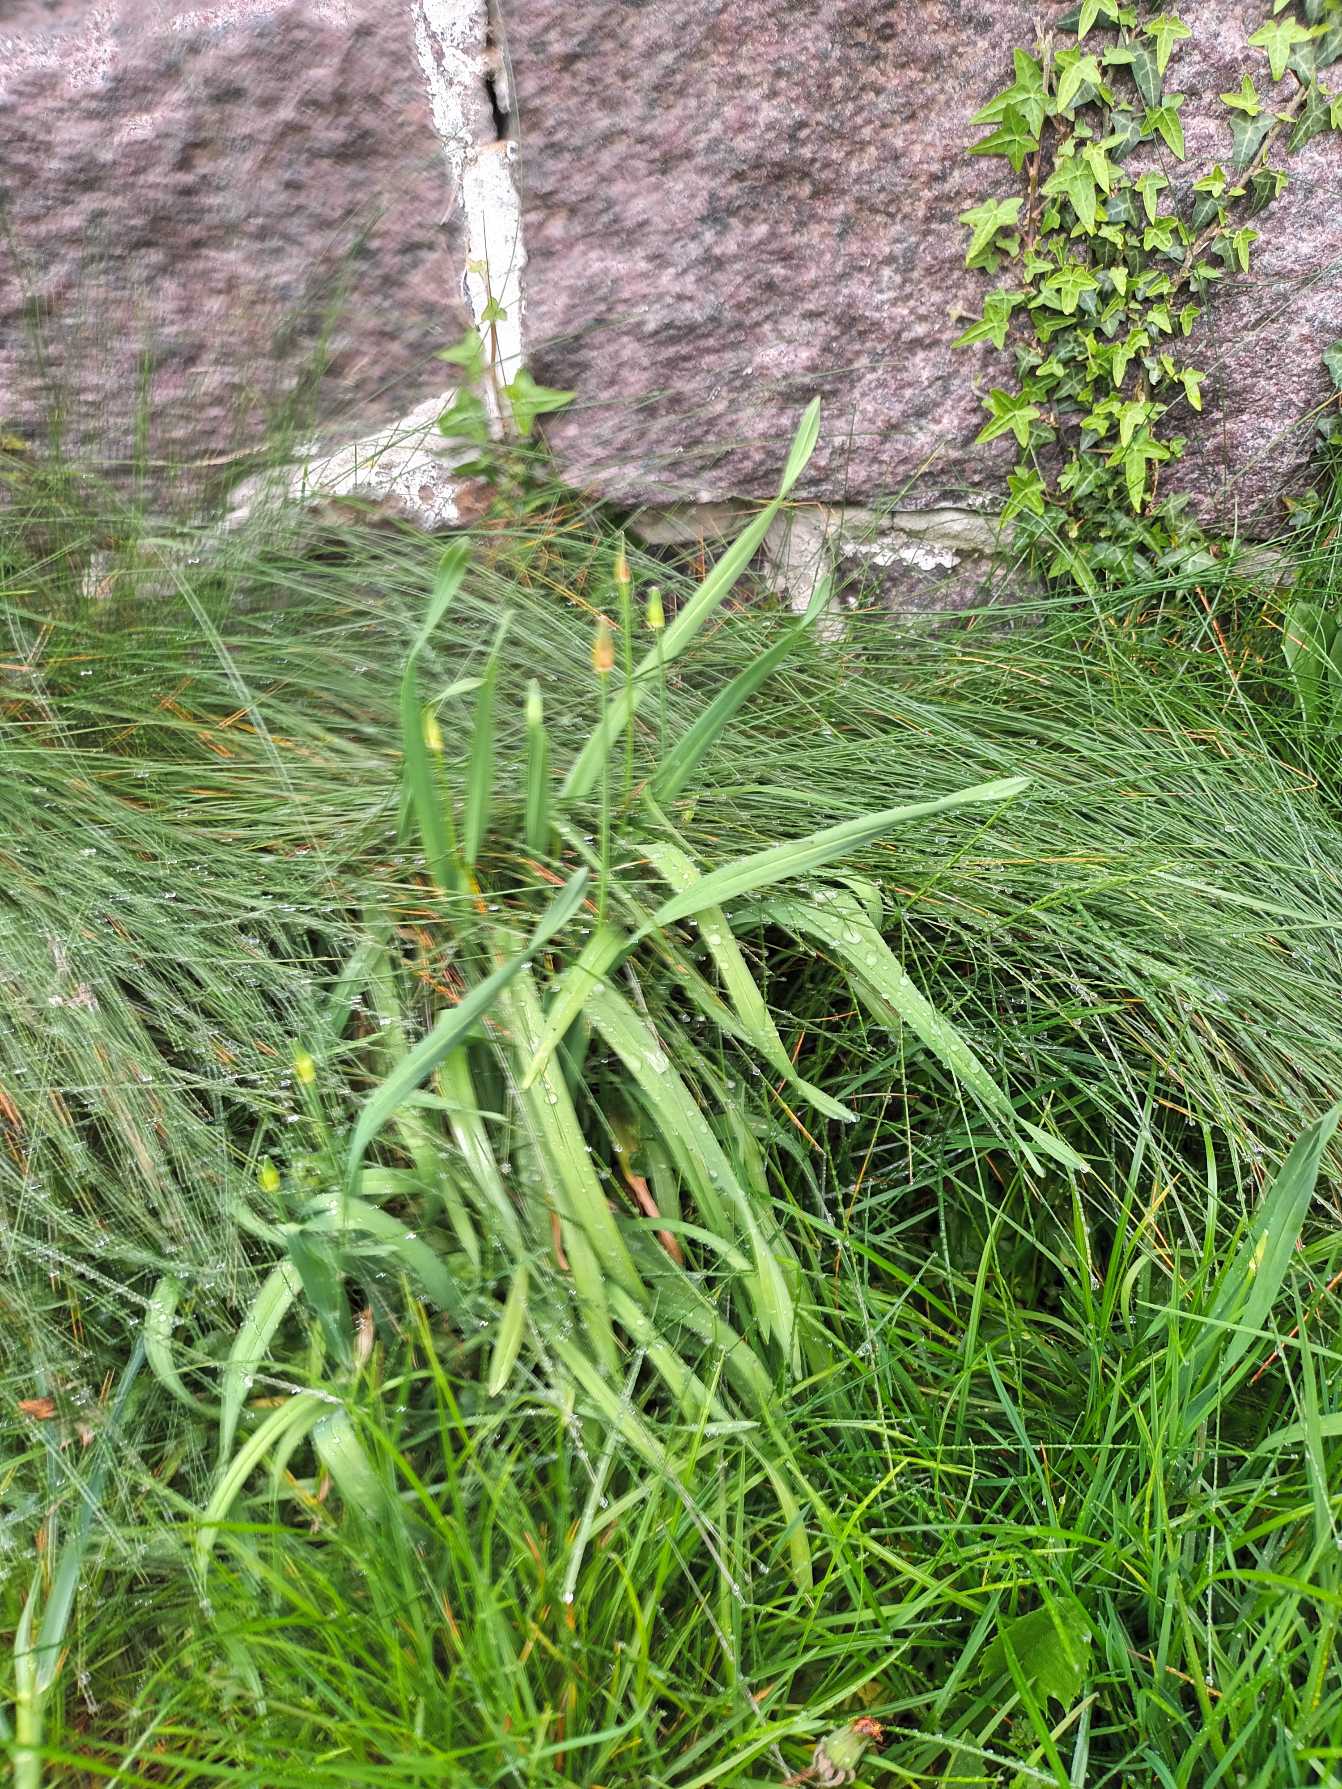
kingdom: Plantae
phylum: Tracheophyta
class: Liliopsida
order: Asparagales
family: Amaryllidaceae
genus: Allium
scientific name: Allium scorodoprasum
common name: Skov-løg
